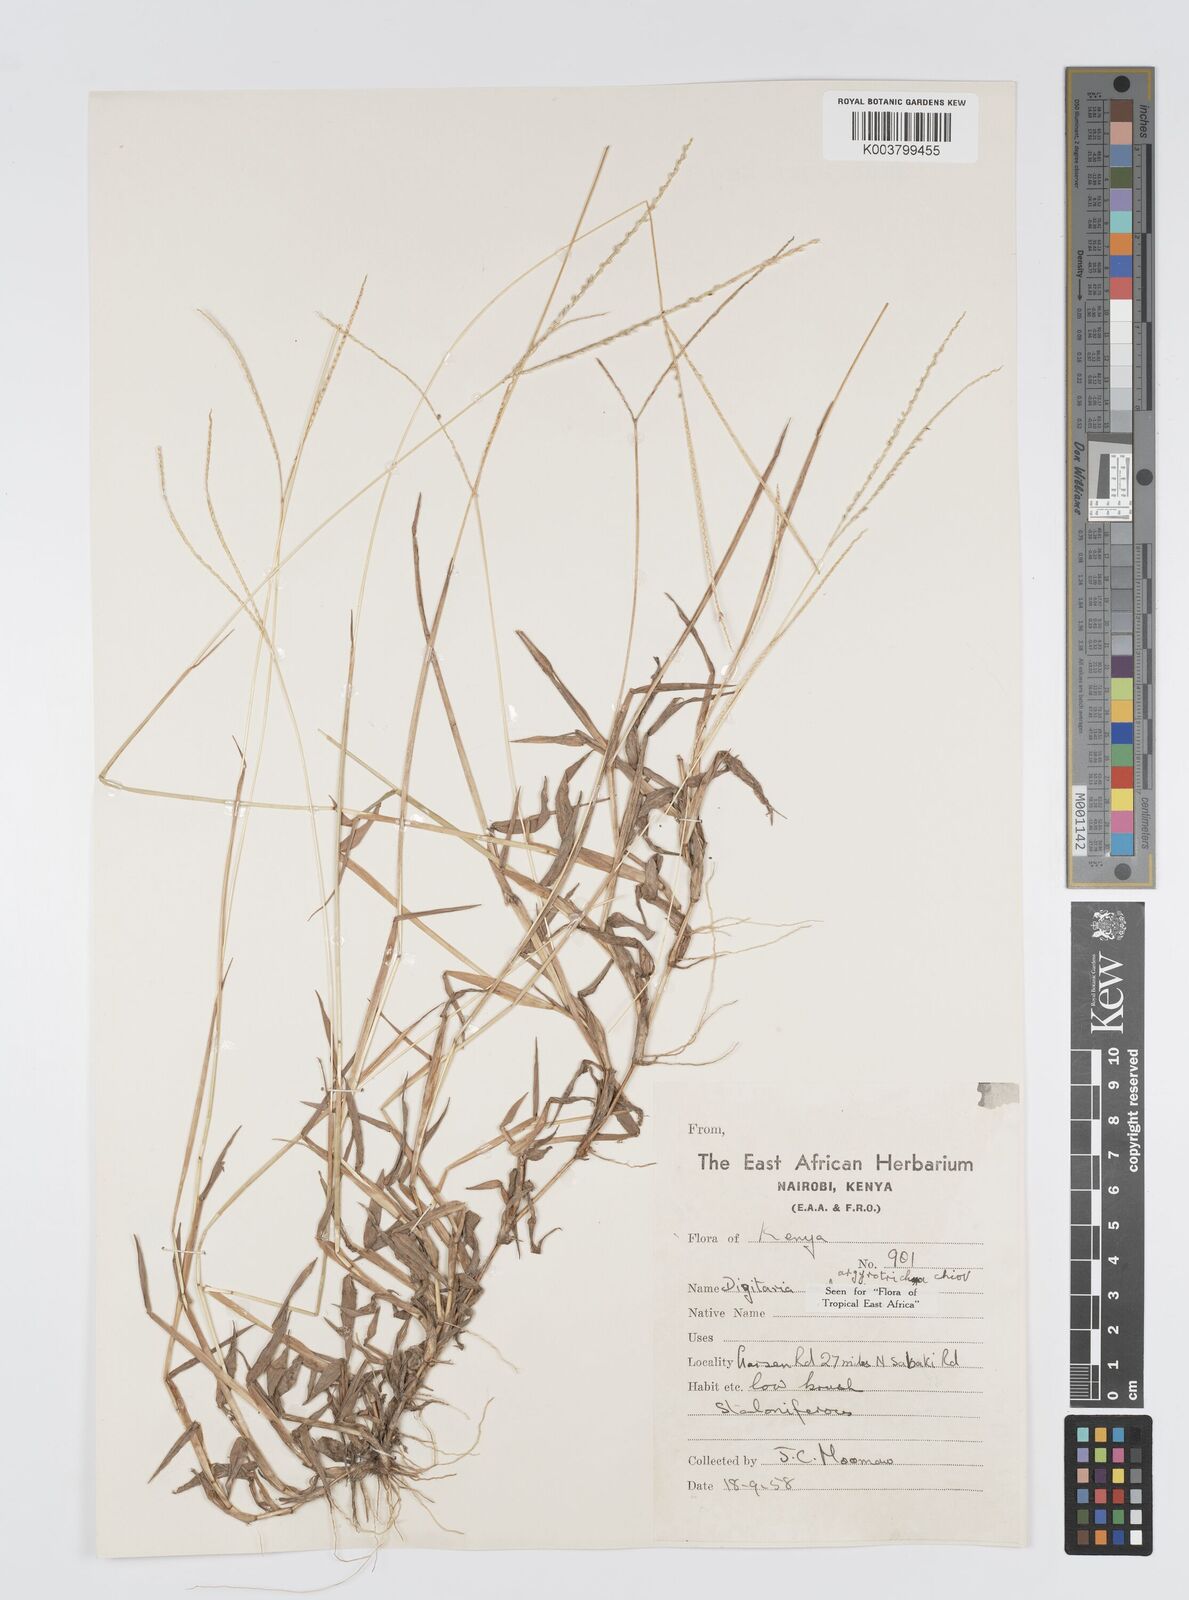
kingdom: Plantae
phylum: Tracheophyta
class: Liliopsida
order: Poales
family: Poaceae
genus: Digitaria
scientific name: Digitaria argyrotricha
